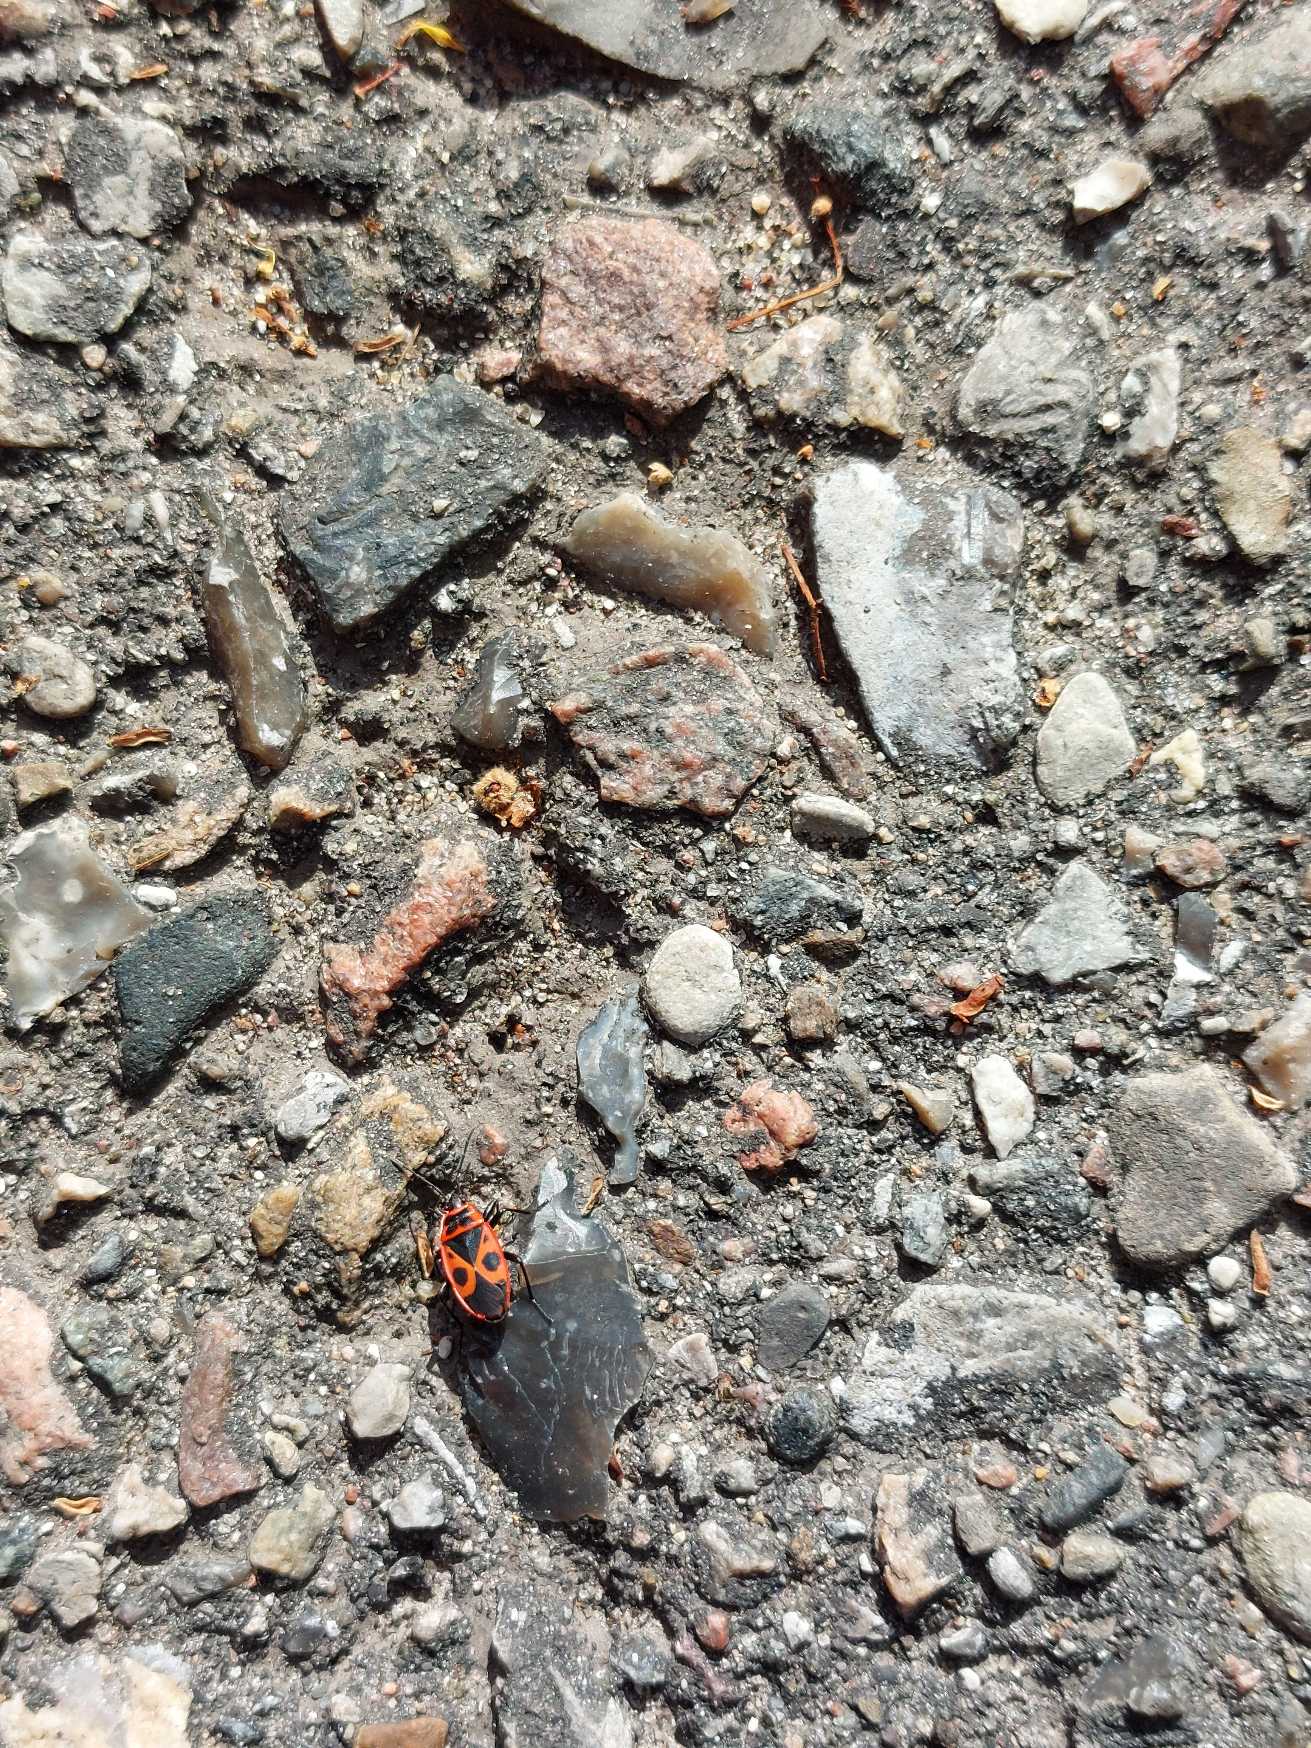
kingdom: Animalia
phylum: Arthropoda
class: Insecta
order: Hemiptera
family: Pyrrhocoridae
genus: Pyrrhocoris
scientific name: Pyrrhocoris apterus
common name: Ildtæge
